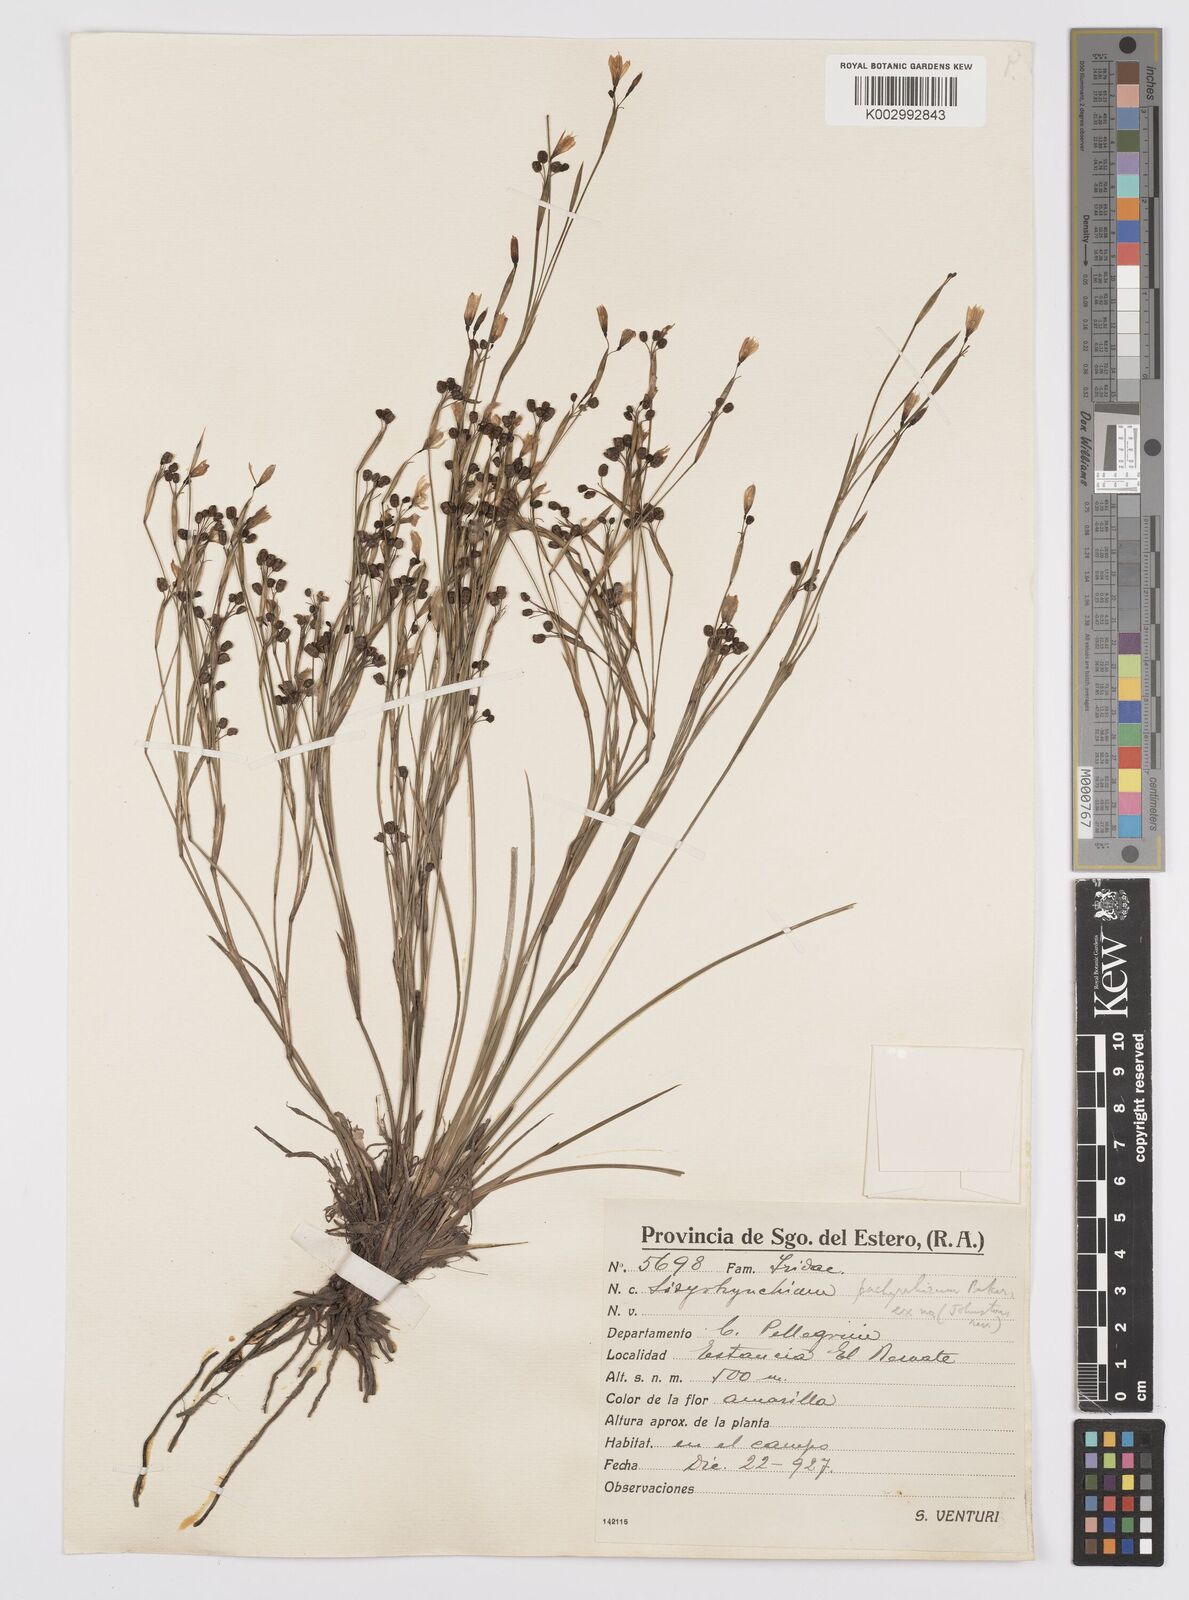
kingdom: Plantae
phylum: Tracheophyta
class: Liliopsida
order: Asparagales
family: Iridaceae
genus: Sisyrinchium
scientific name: Sisyrinchium pachyrhizum
